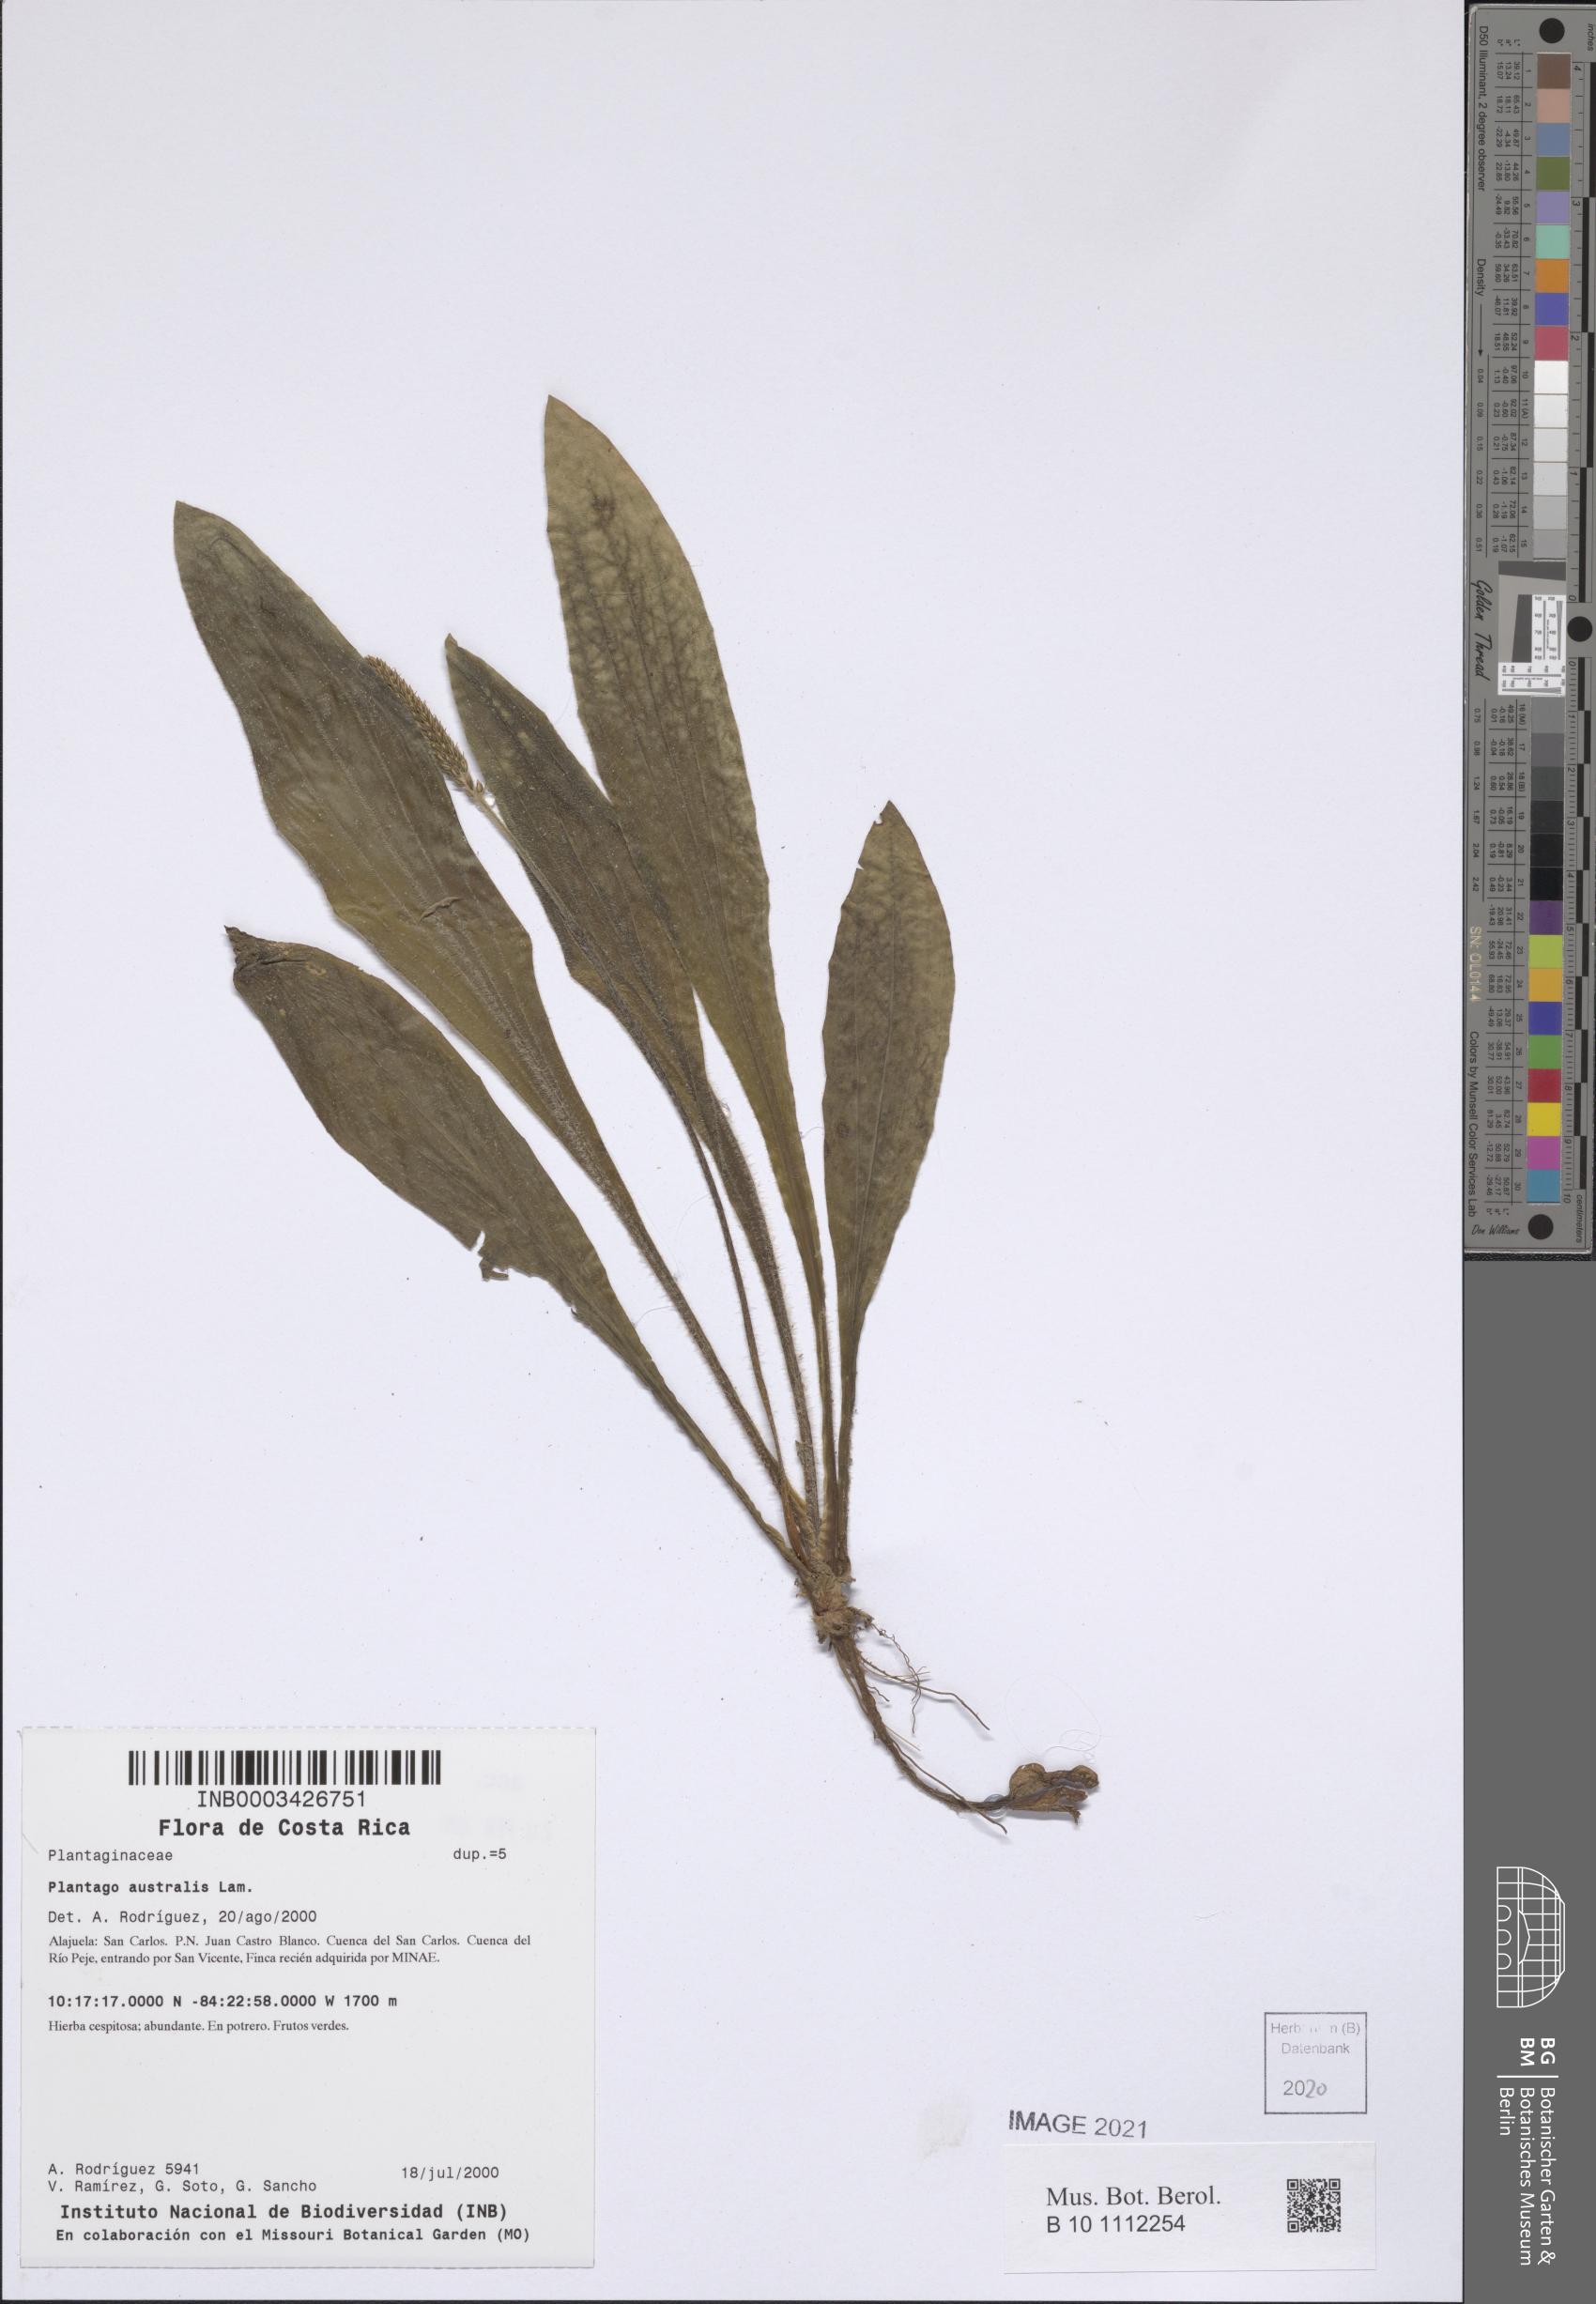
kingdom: Plantae
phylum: Tracheophyta
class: Magnoliopsida
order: Lamiales
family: Plantaginaceae
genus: Plantago
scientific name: Plantago australis
